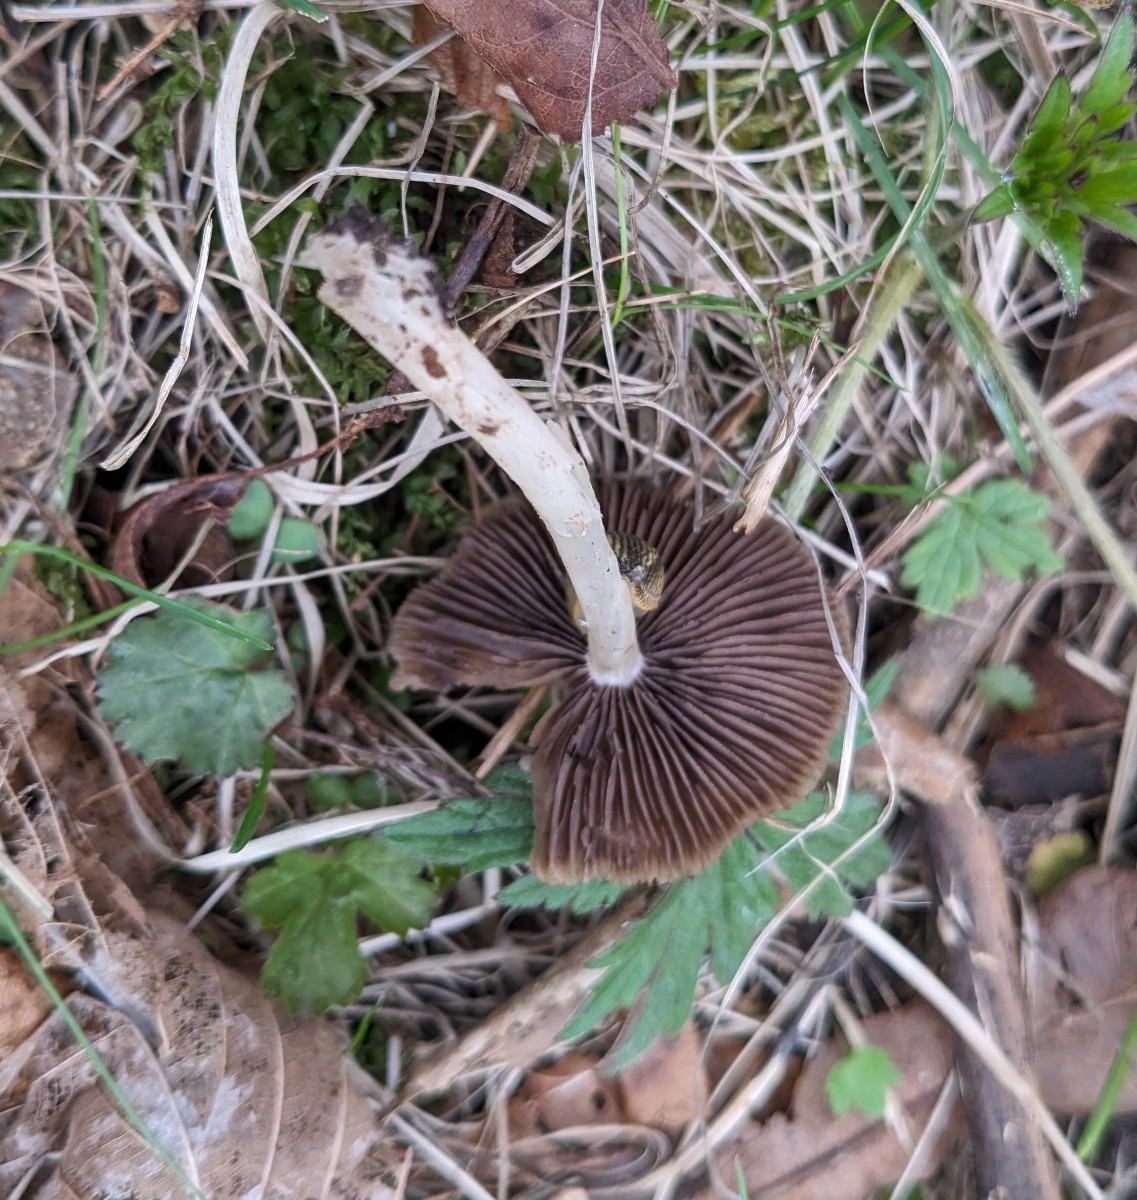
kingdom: Fungi
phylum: Basidiomycota
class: Agaricomycetes
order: Agaricales
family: Psathyrellaceae
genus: Psathyrella
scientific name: Psathyrella spadiceogrisea
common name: gråbrun mørkhat
